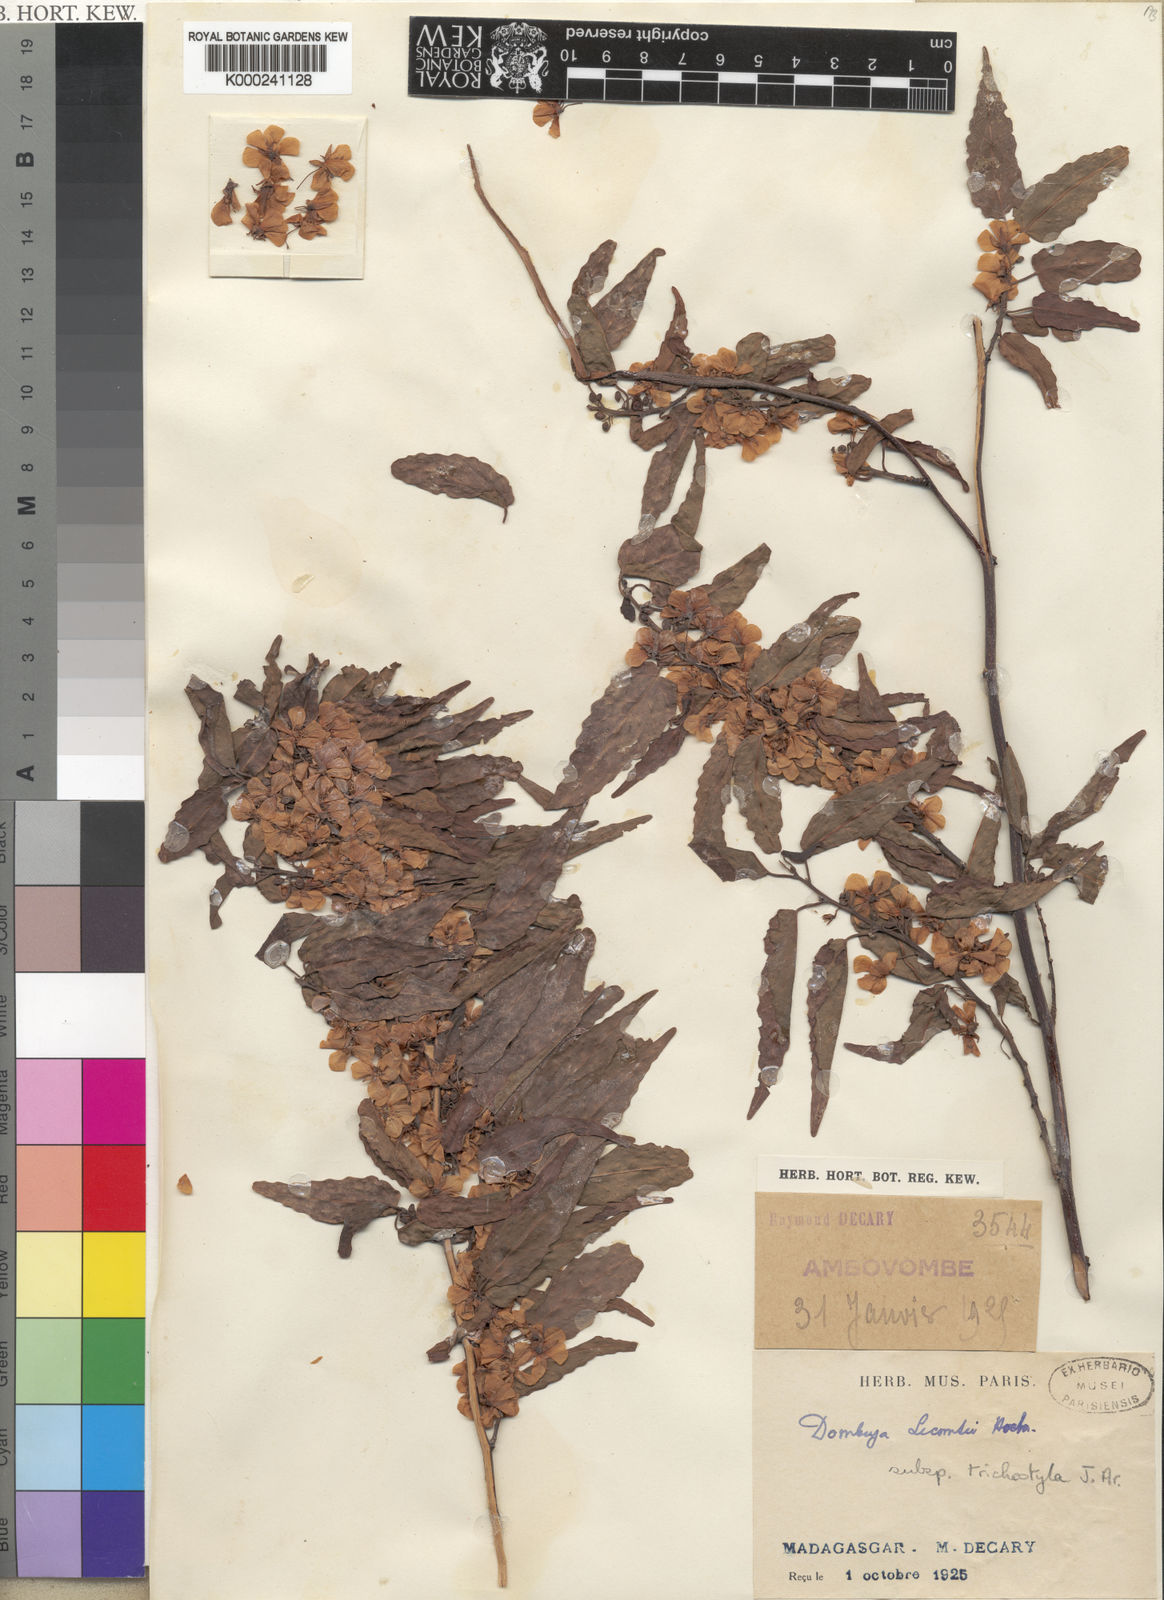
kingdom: Plantae
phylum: Tracheophyta
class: Magnoliopsida
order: Malvales
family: Malvaceae
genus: Dombeya
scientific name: Dombeya lecomtei
